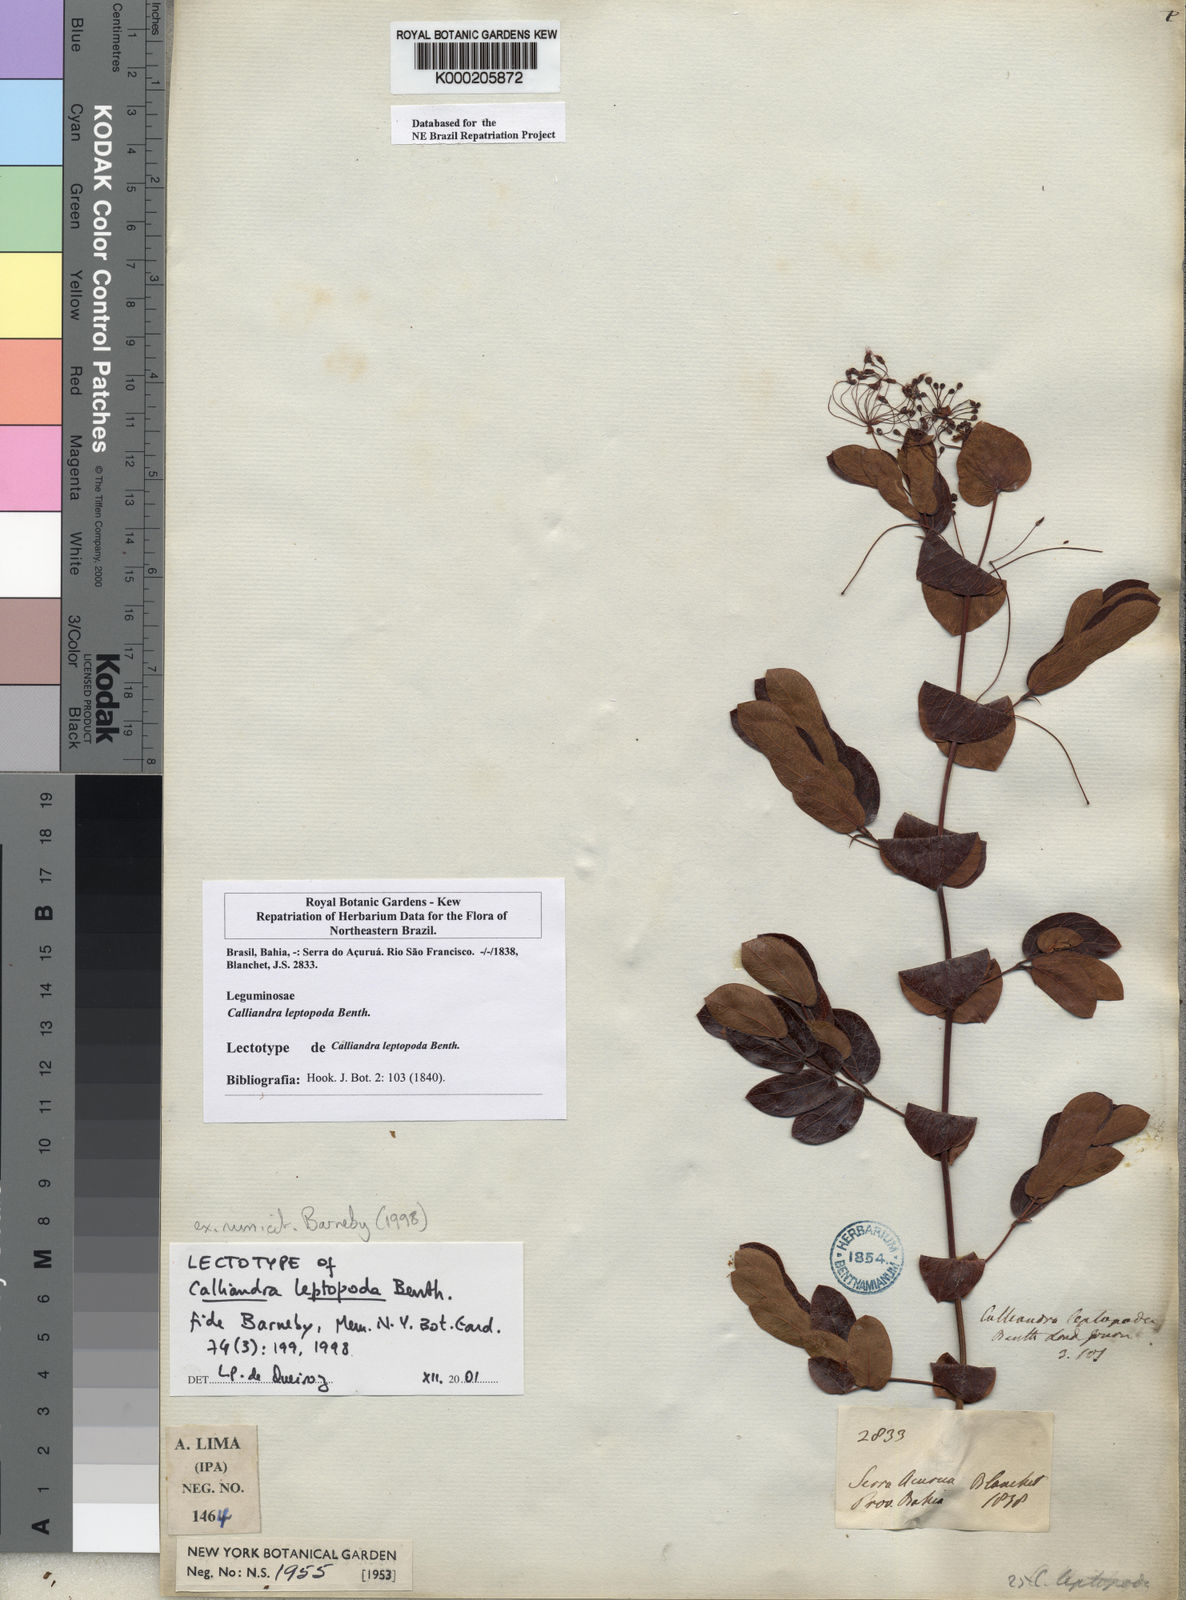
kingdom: Plantae
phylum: Tracheophyta
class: Magnoliopsida
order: Fabales
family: Fabaceae
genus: Calliandra
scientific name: Calliandra leptopoda
